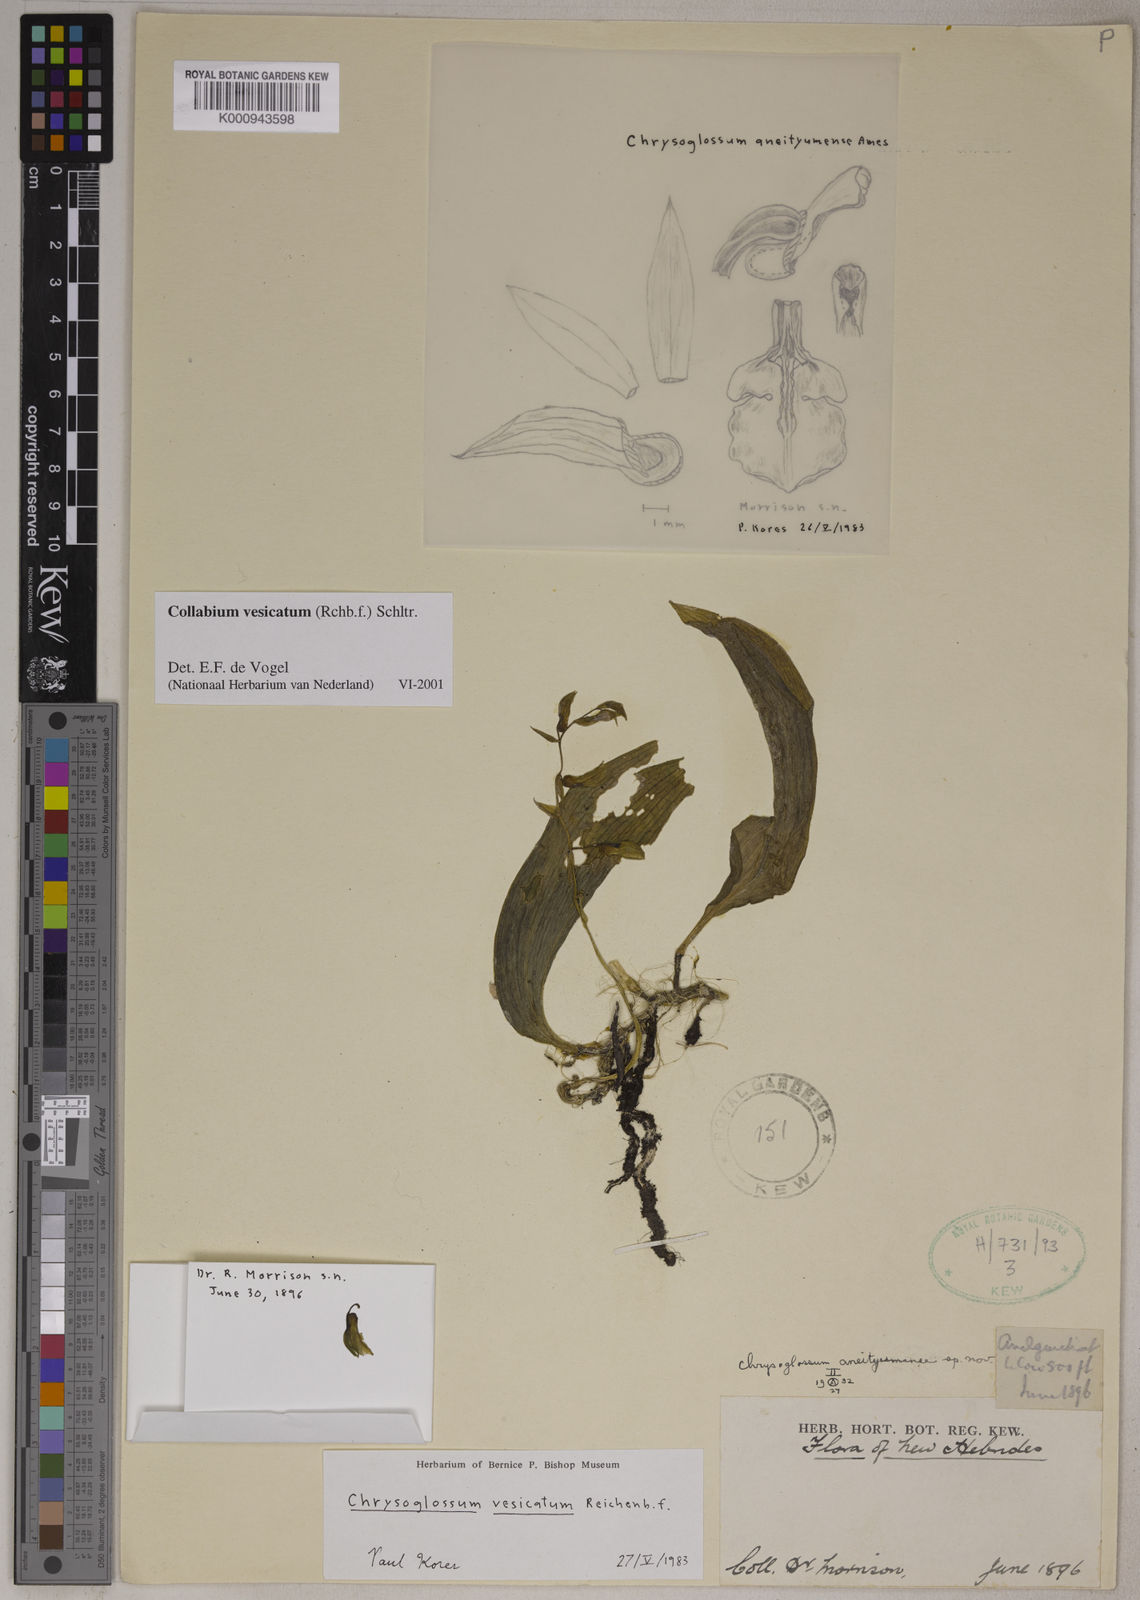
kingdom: Plantae
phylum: Tracheophyta
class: Liliopsida
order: Asparagales
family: Orchidaceae
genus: Collabium
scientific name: Collabium vesicatum
